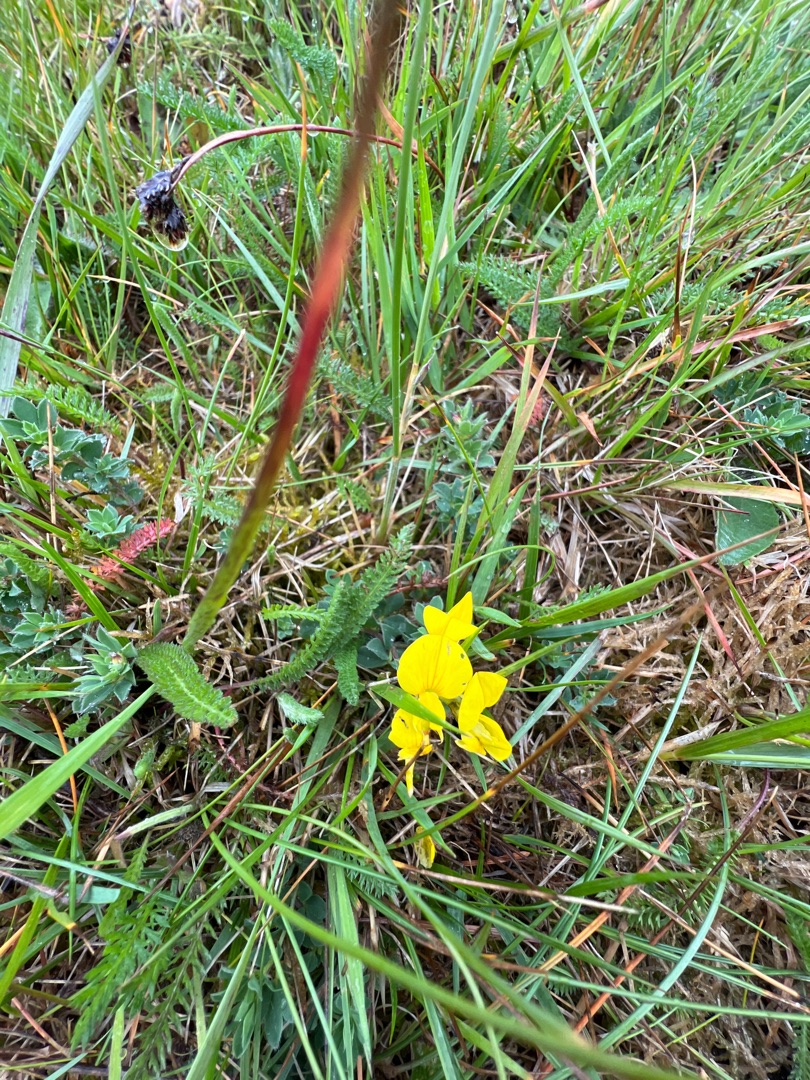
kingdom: Plantae
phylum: Tracheophyta
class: Magnoliopsida
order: Fabales
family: Fabaceae
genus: Lotus
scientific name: Lotus corniculatus
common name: Almindelig kællingetand
